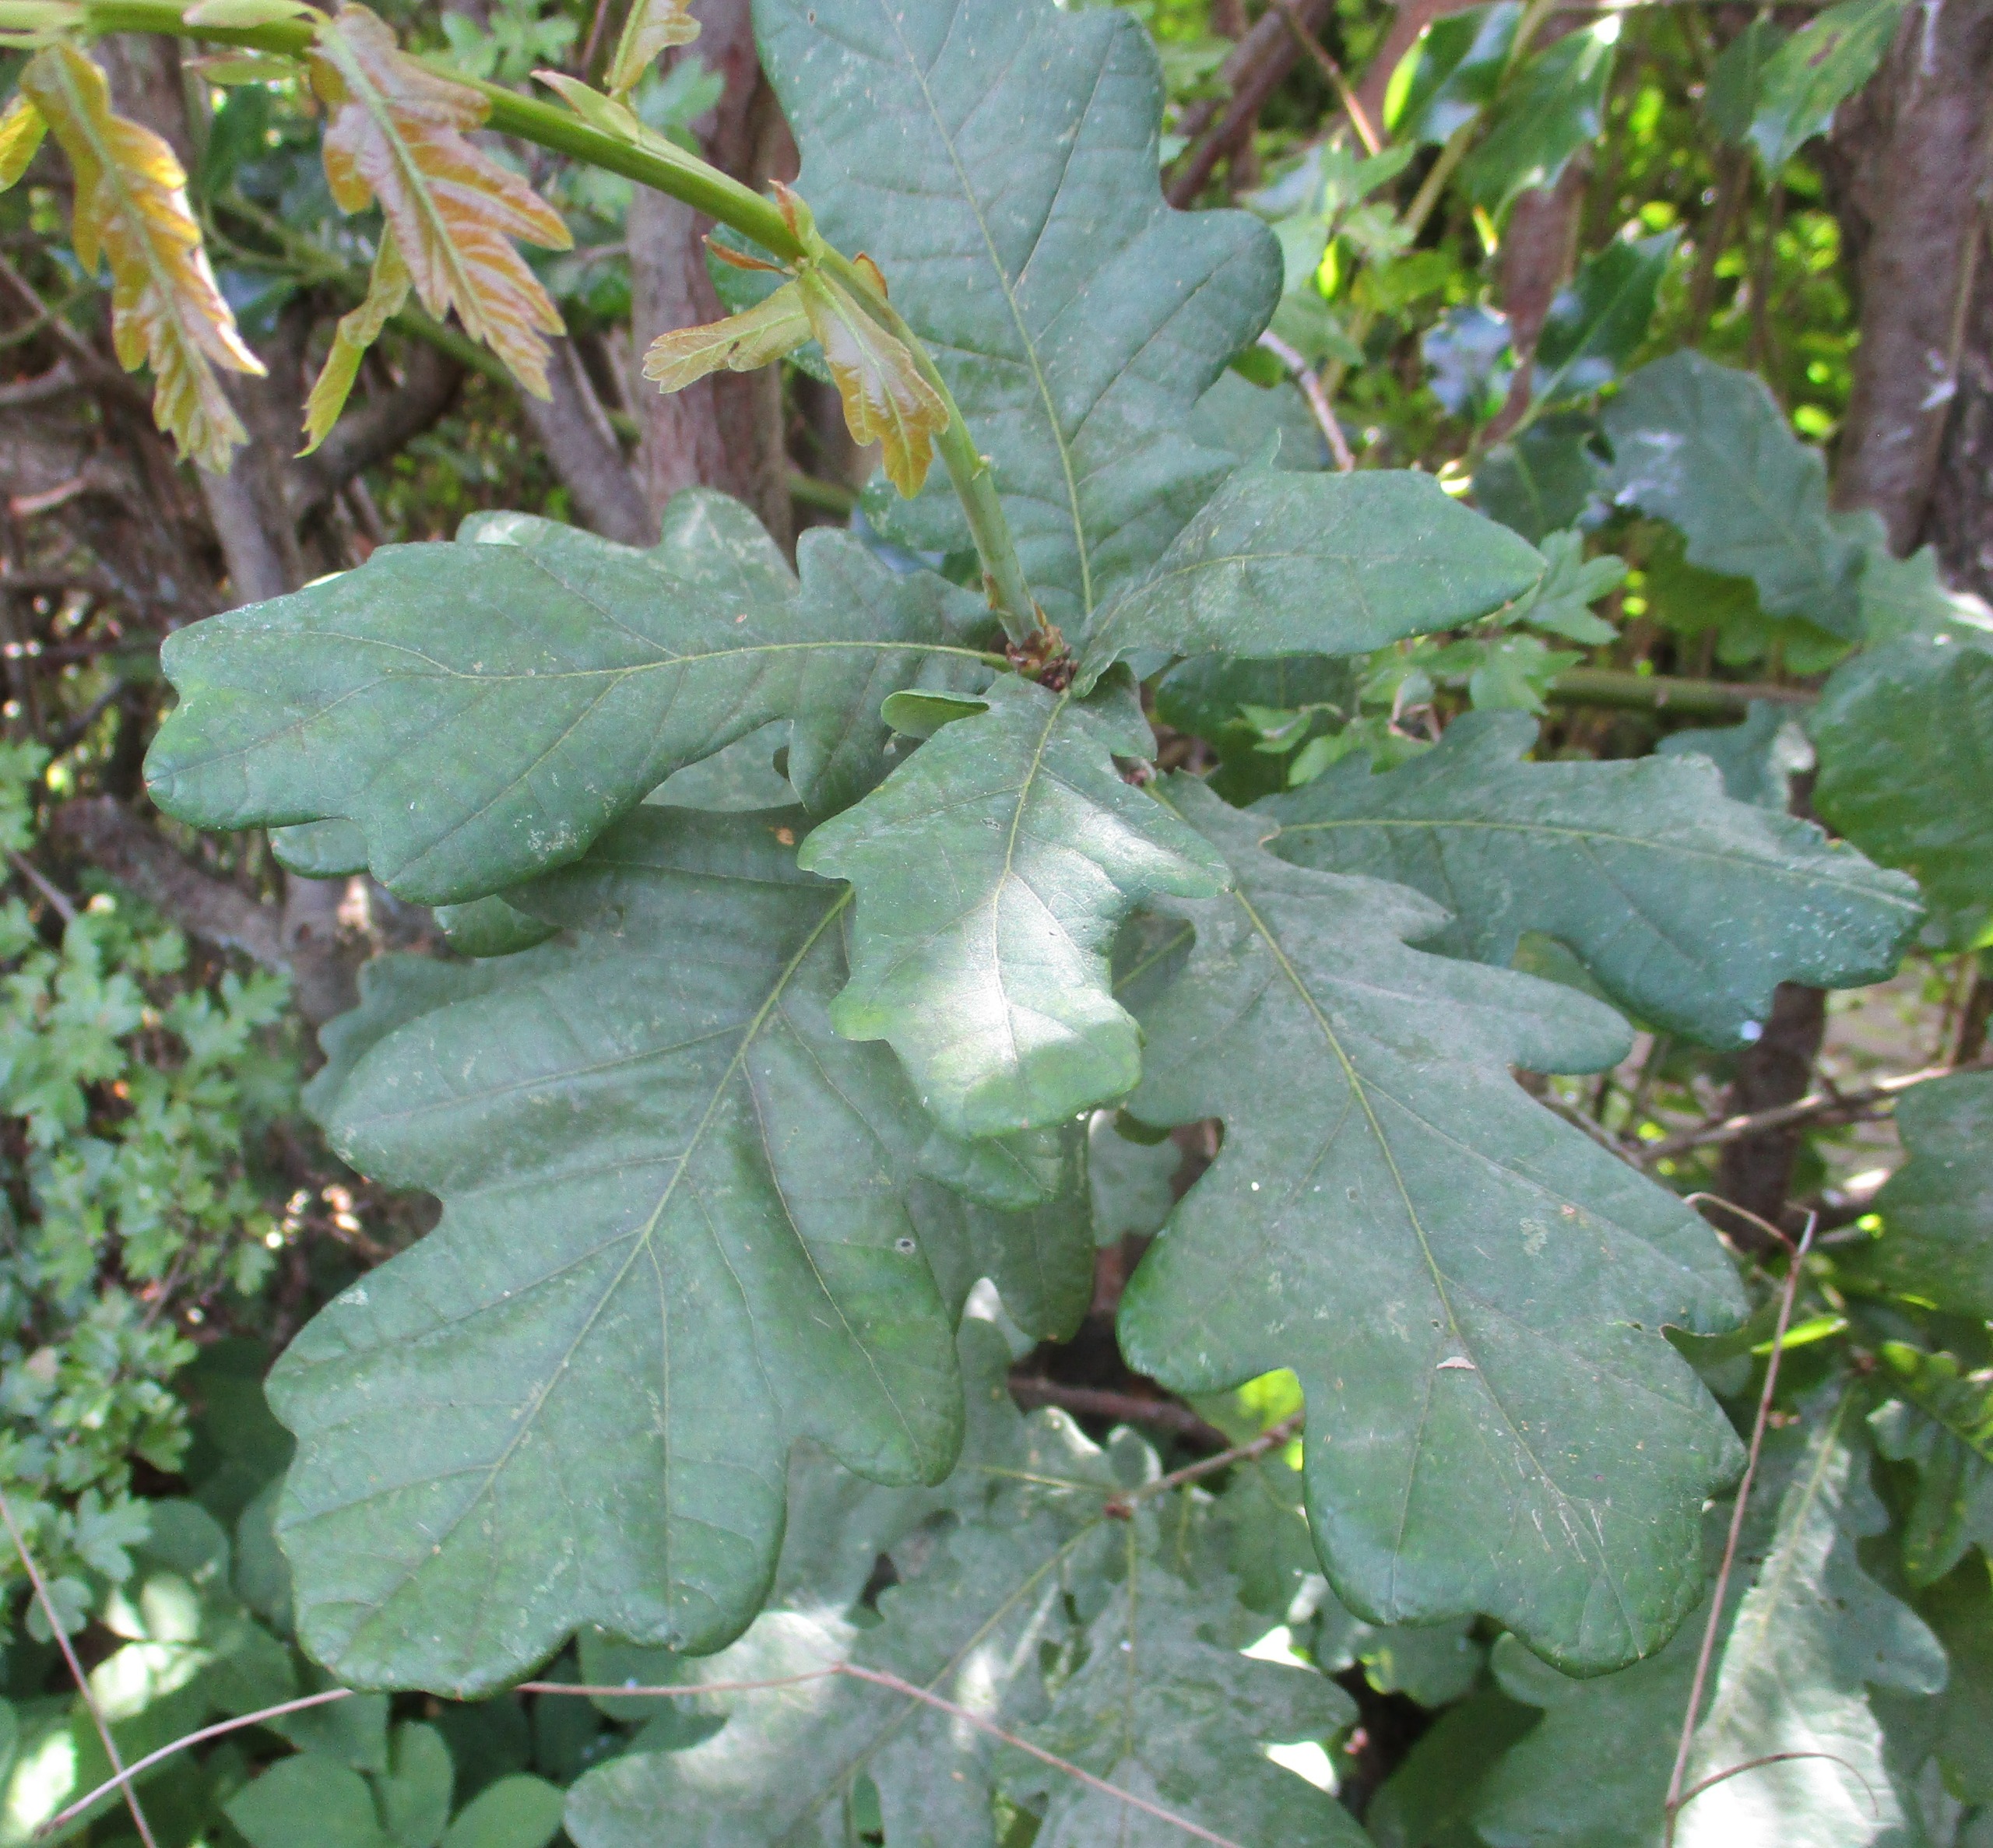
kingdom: Plantae
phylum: Tracheophyta
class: Magnoliopsida
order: Fagales
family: Fagaceae
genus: Quercus
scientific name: Quercus robur
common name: Stilk-eg/almindelig eg
